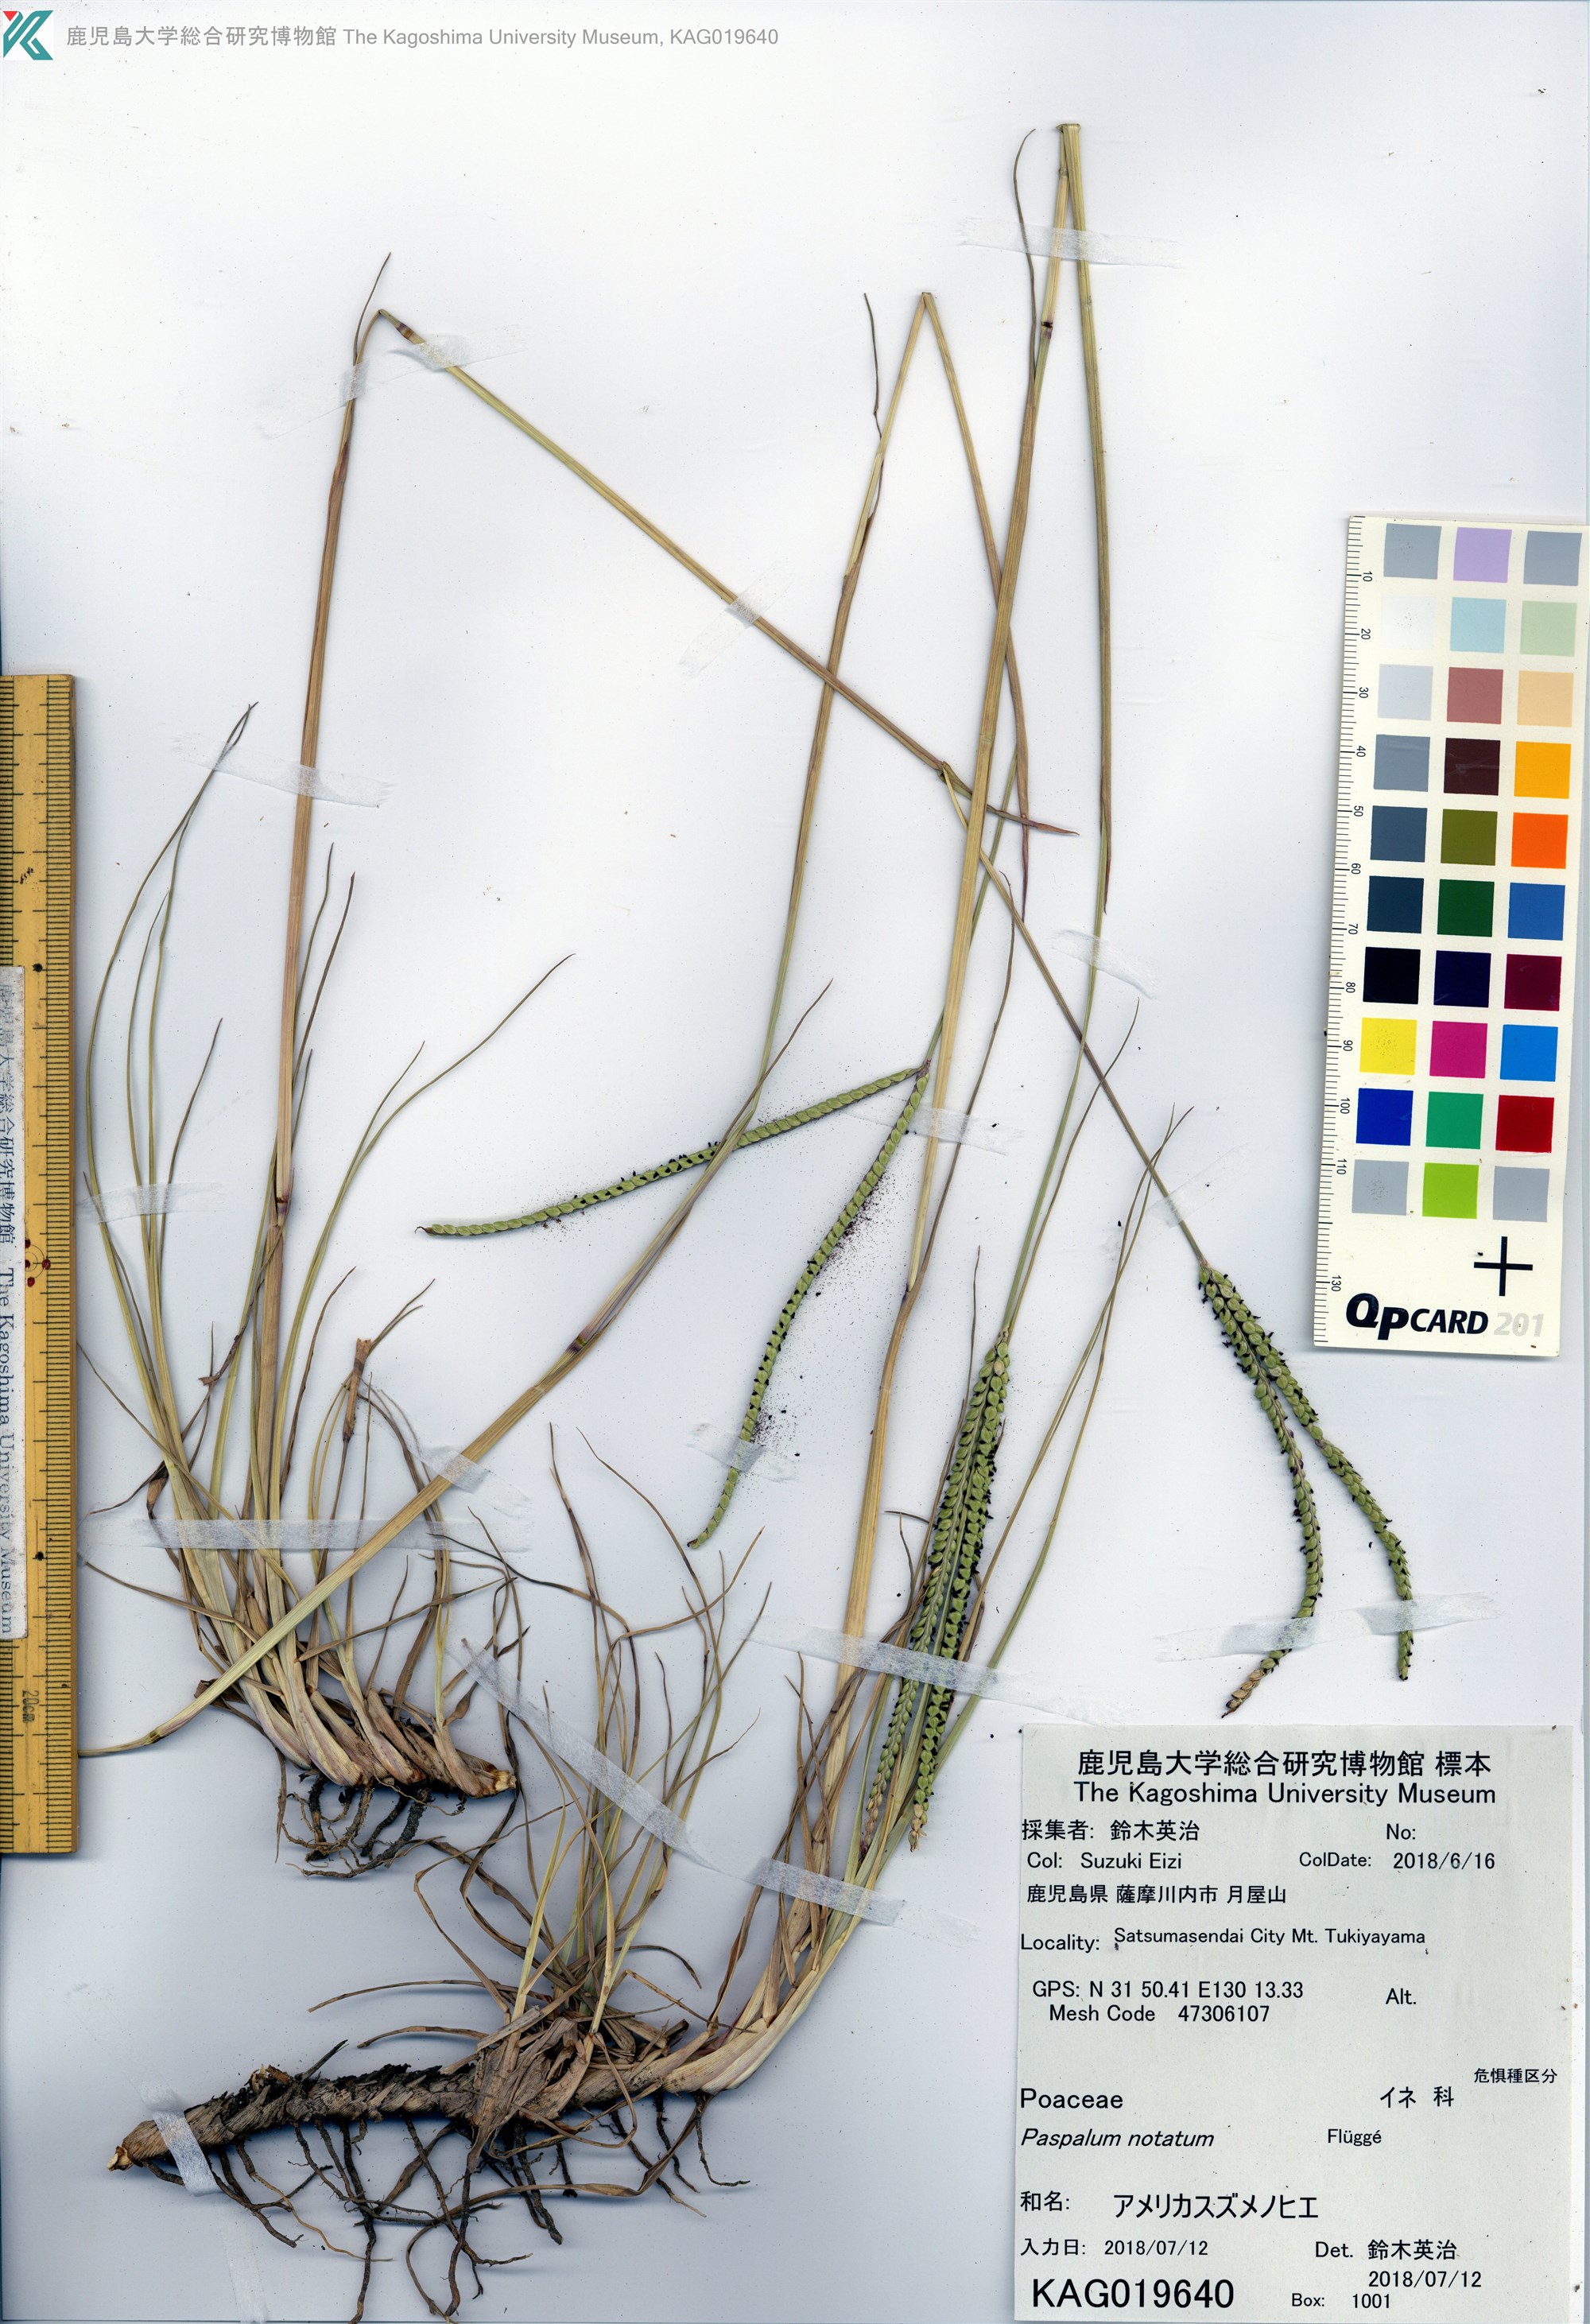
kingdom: Plantae
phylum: Tracheophyta
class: Liliopsida
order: Poales
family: Poaceae
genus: Paspalum
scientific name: Paspalum notatum
